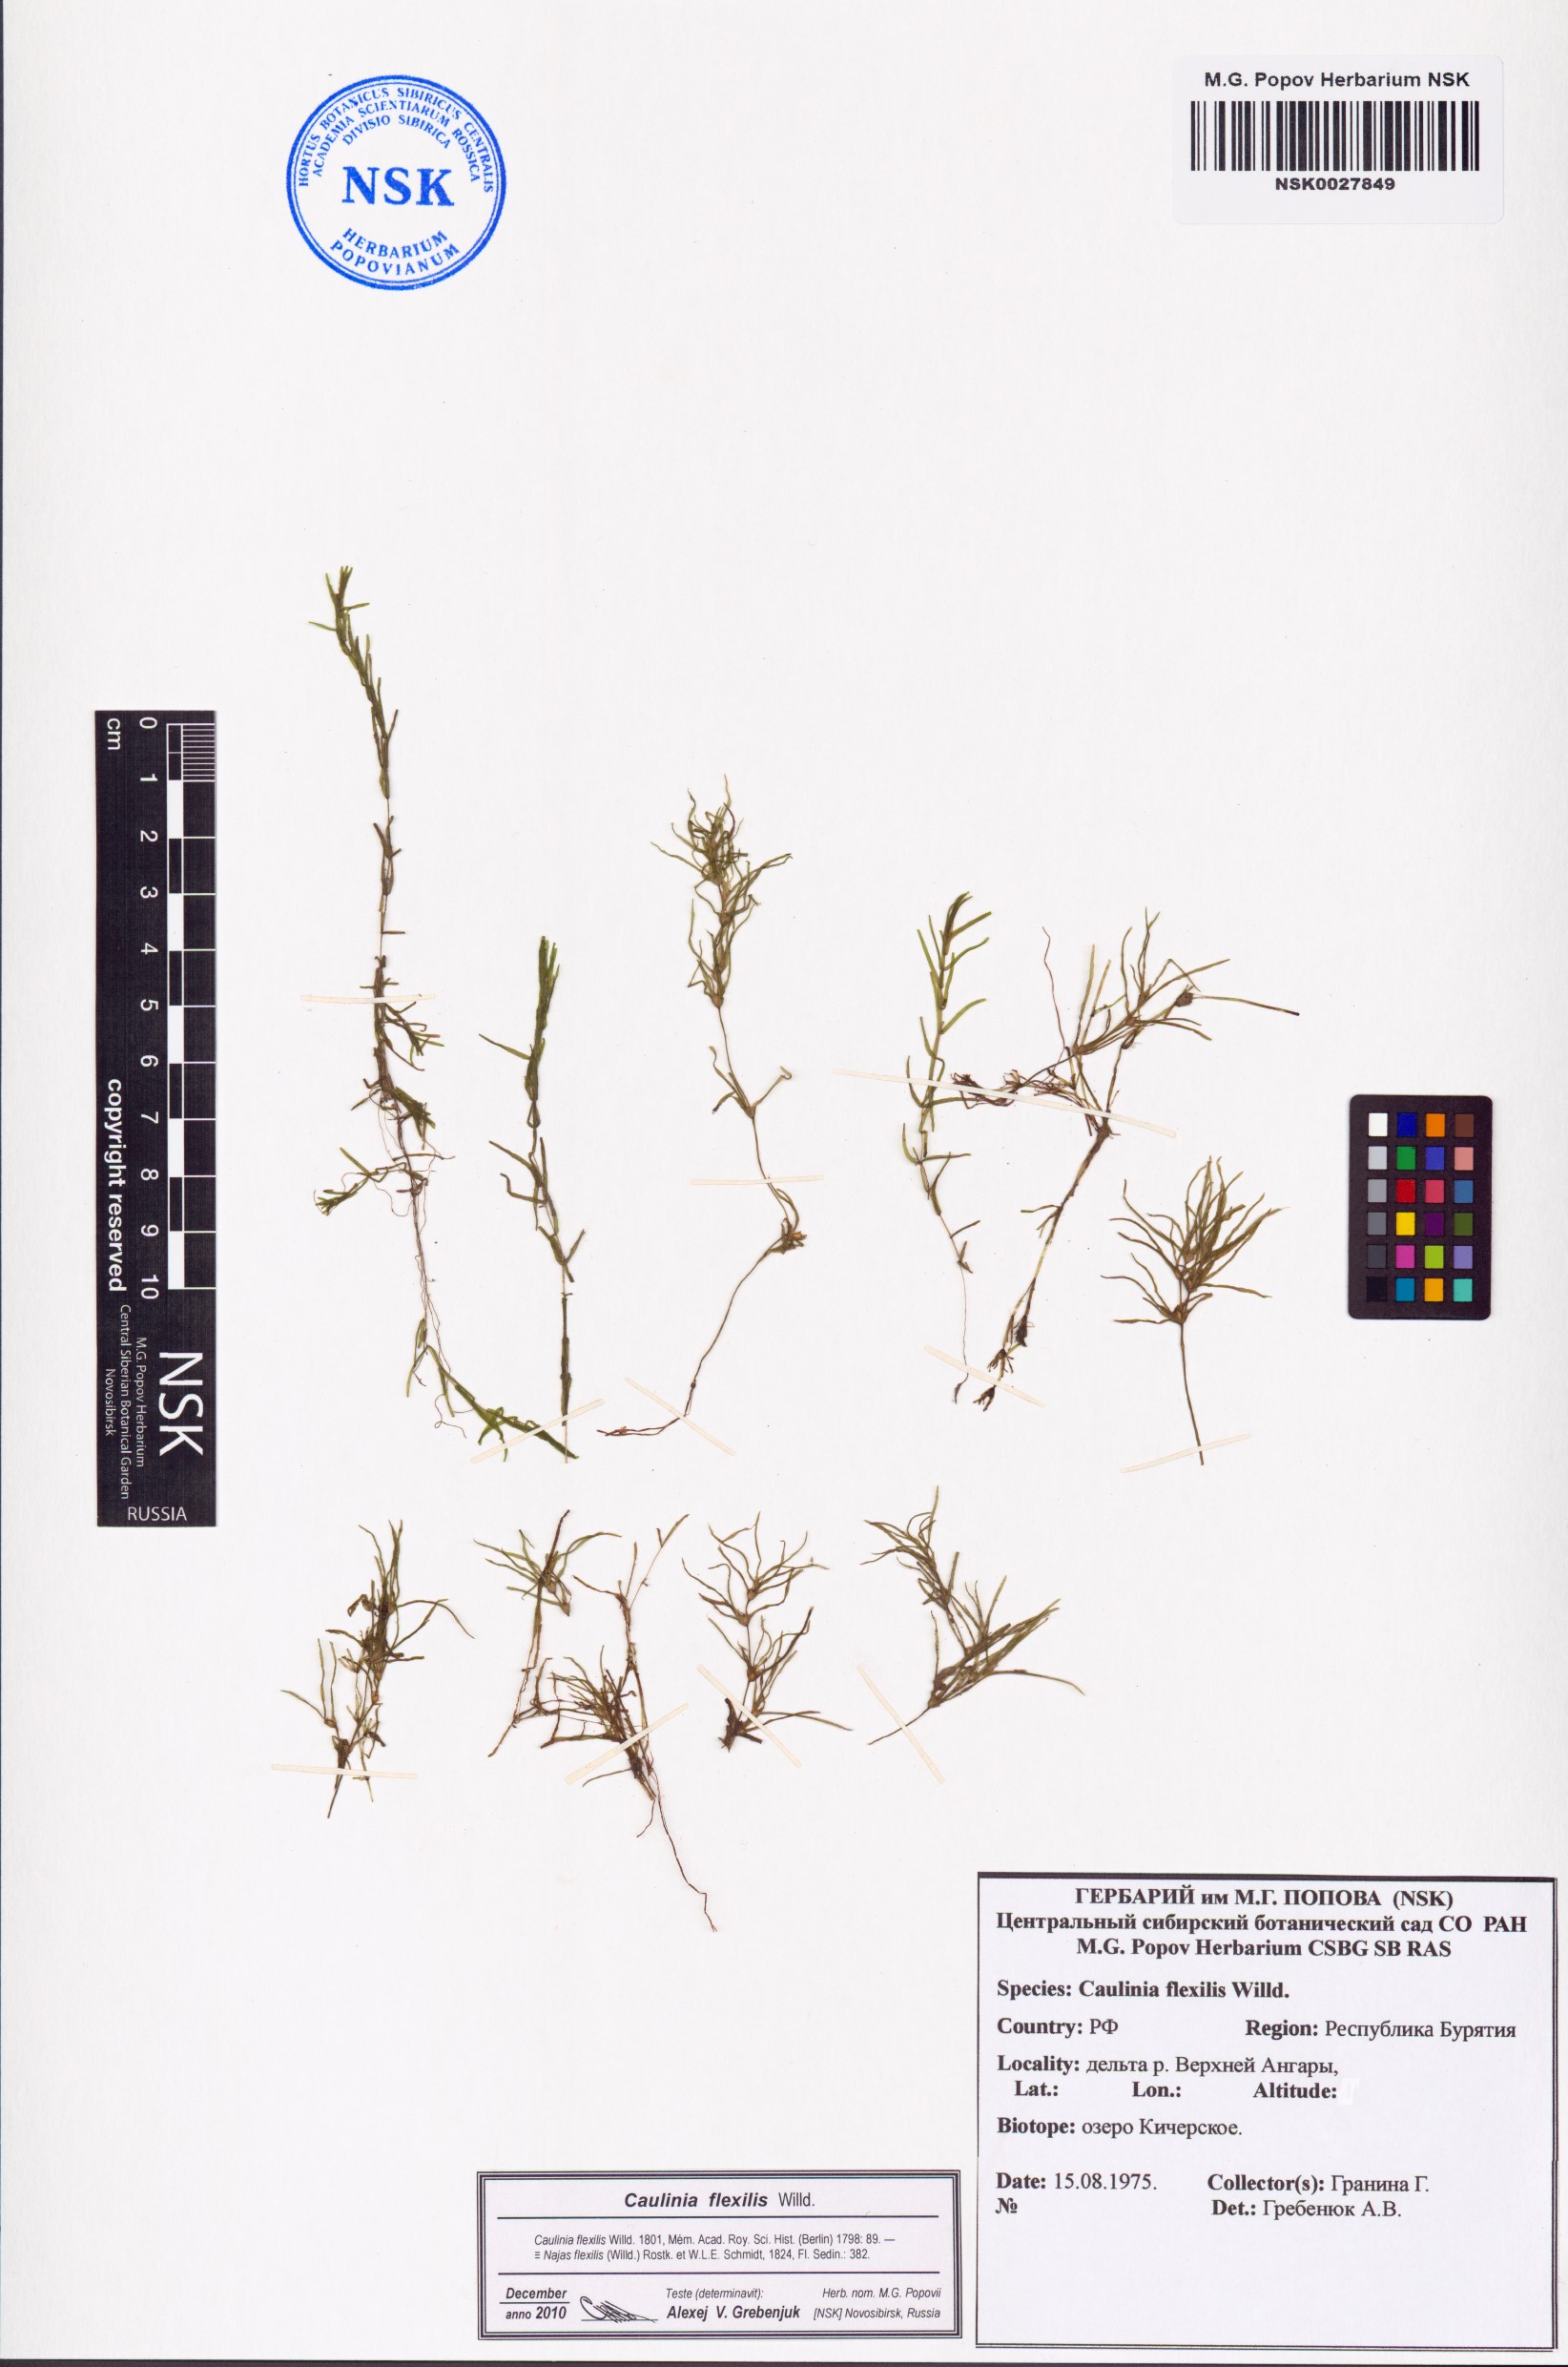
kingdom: Plantae
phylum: Tracheophyta
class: Liliopsida
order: Alismatales
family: Hydrocharitaceae
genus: Najas
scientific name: Najas flexilis
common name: Slender naiad
